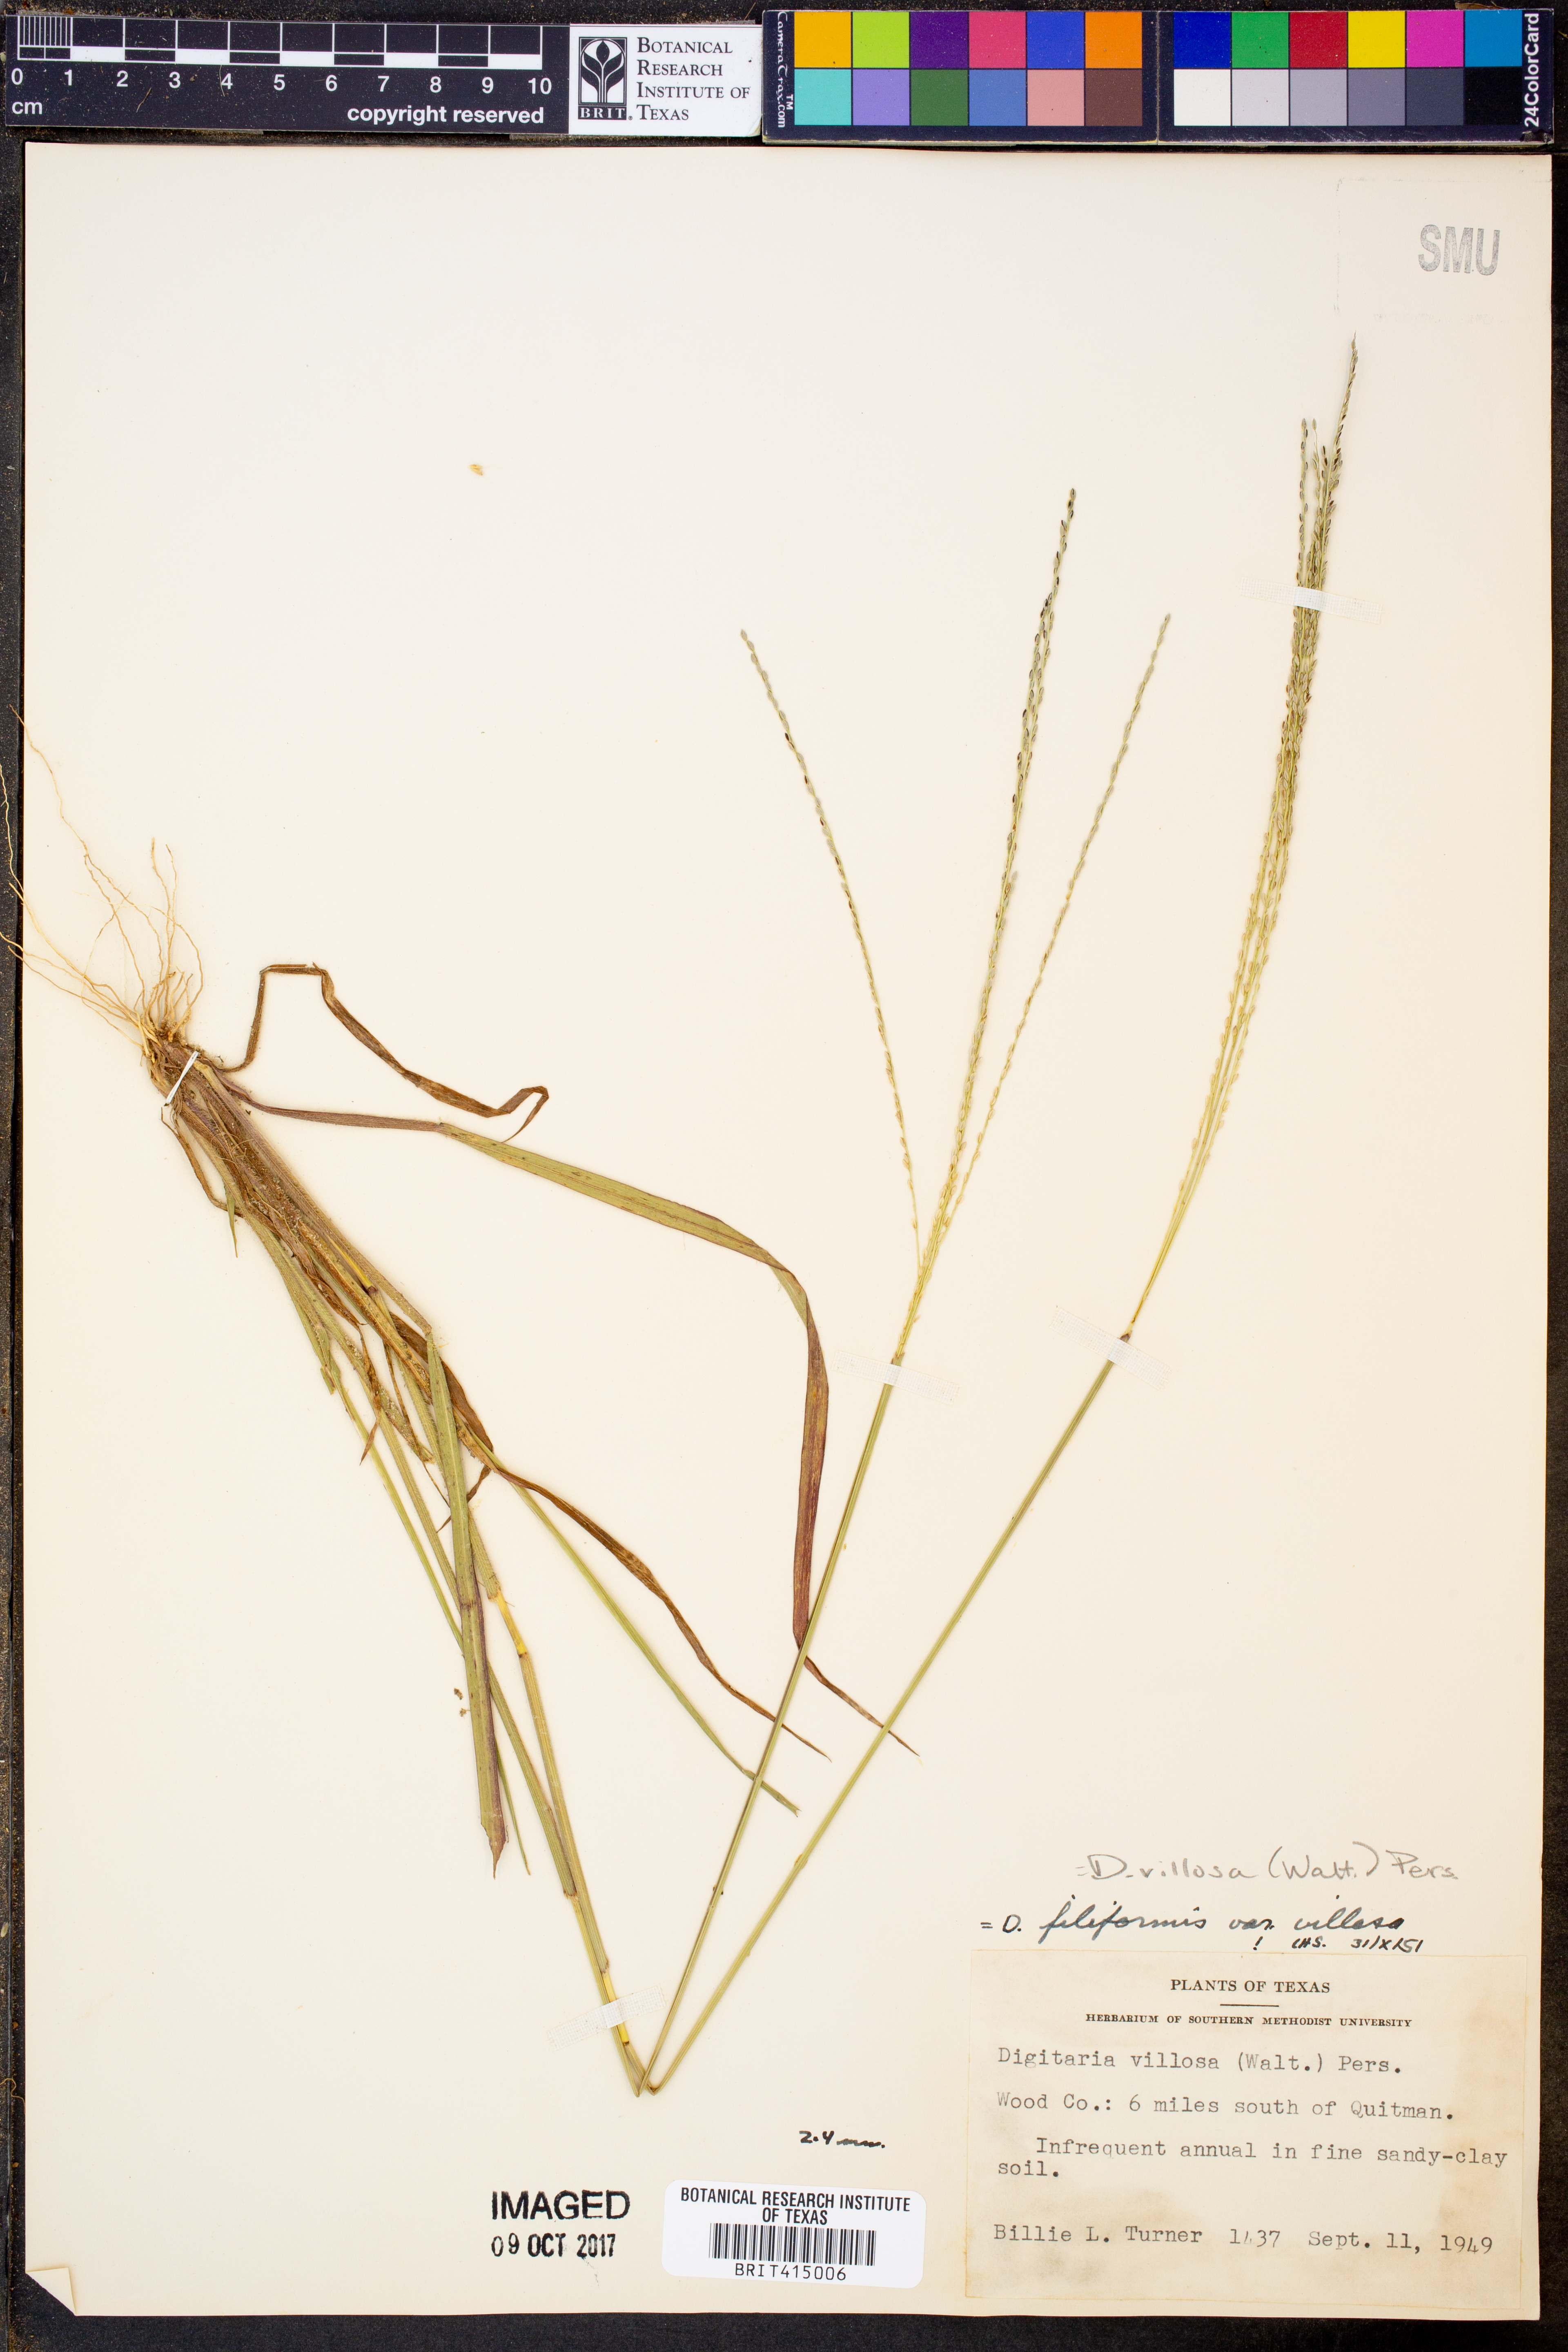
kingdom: Plantae
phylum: Tracheophyta
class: Liliopsida
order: Poales
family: Poaceae
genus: Digitaria
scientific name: Digitaria villosa
